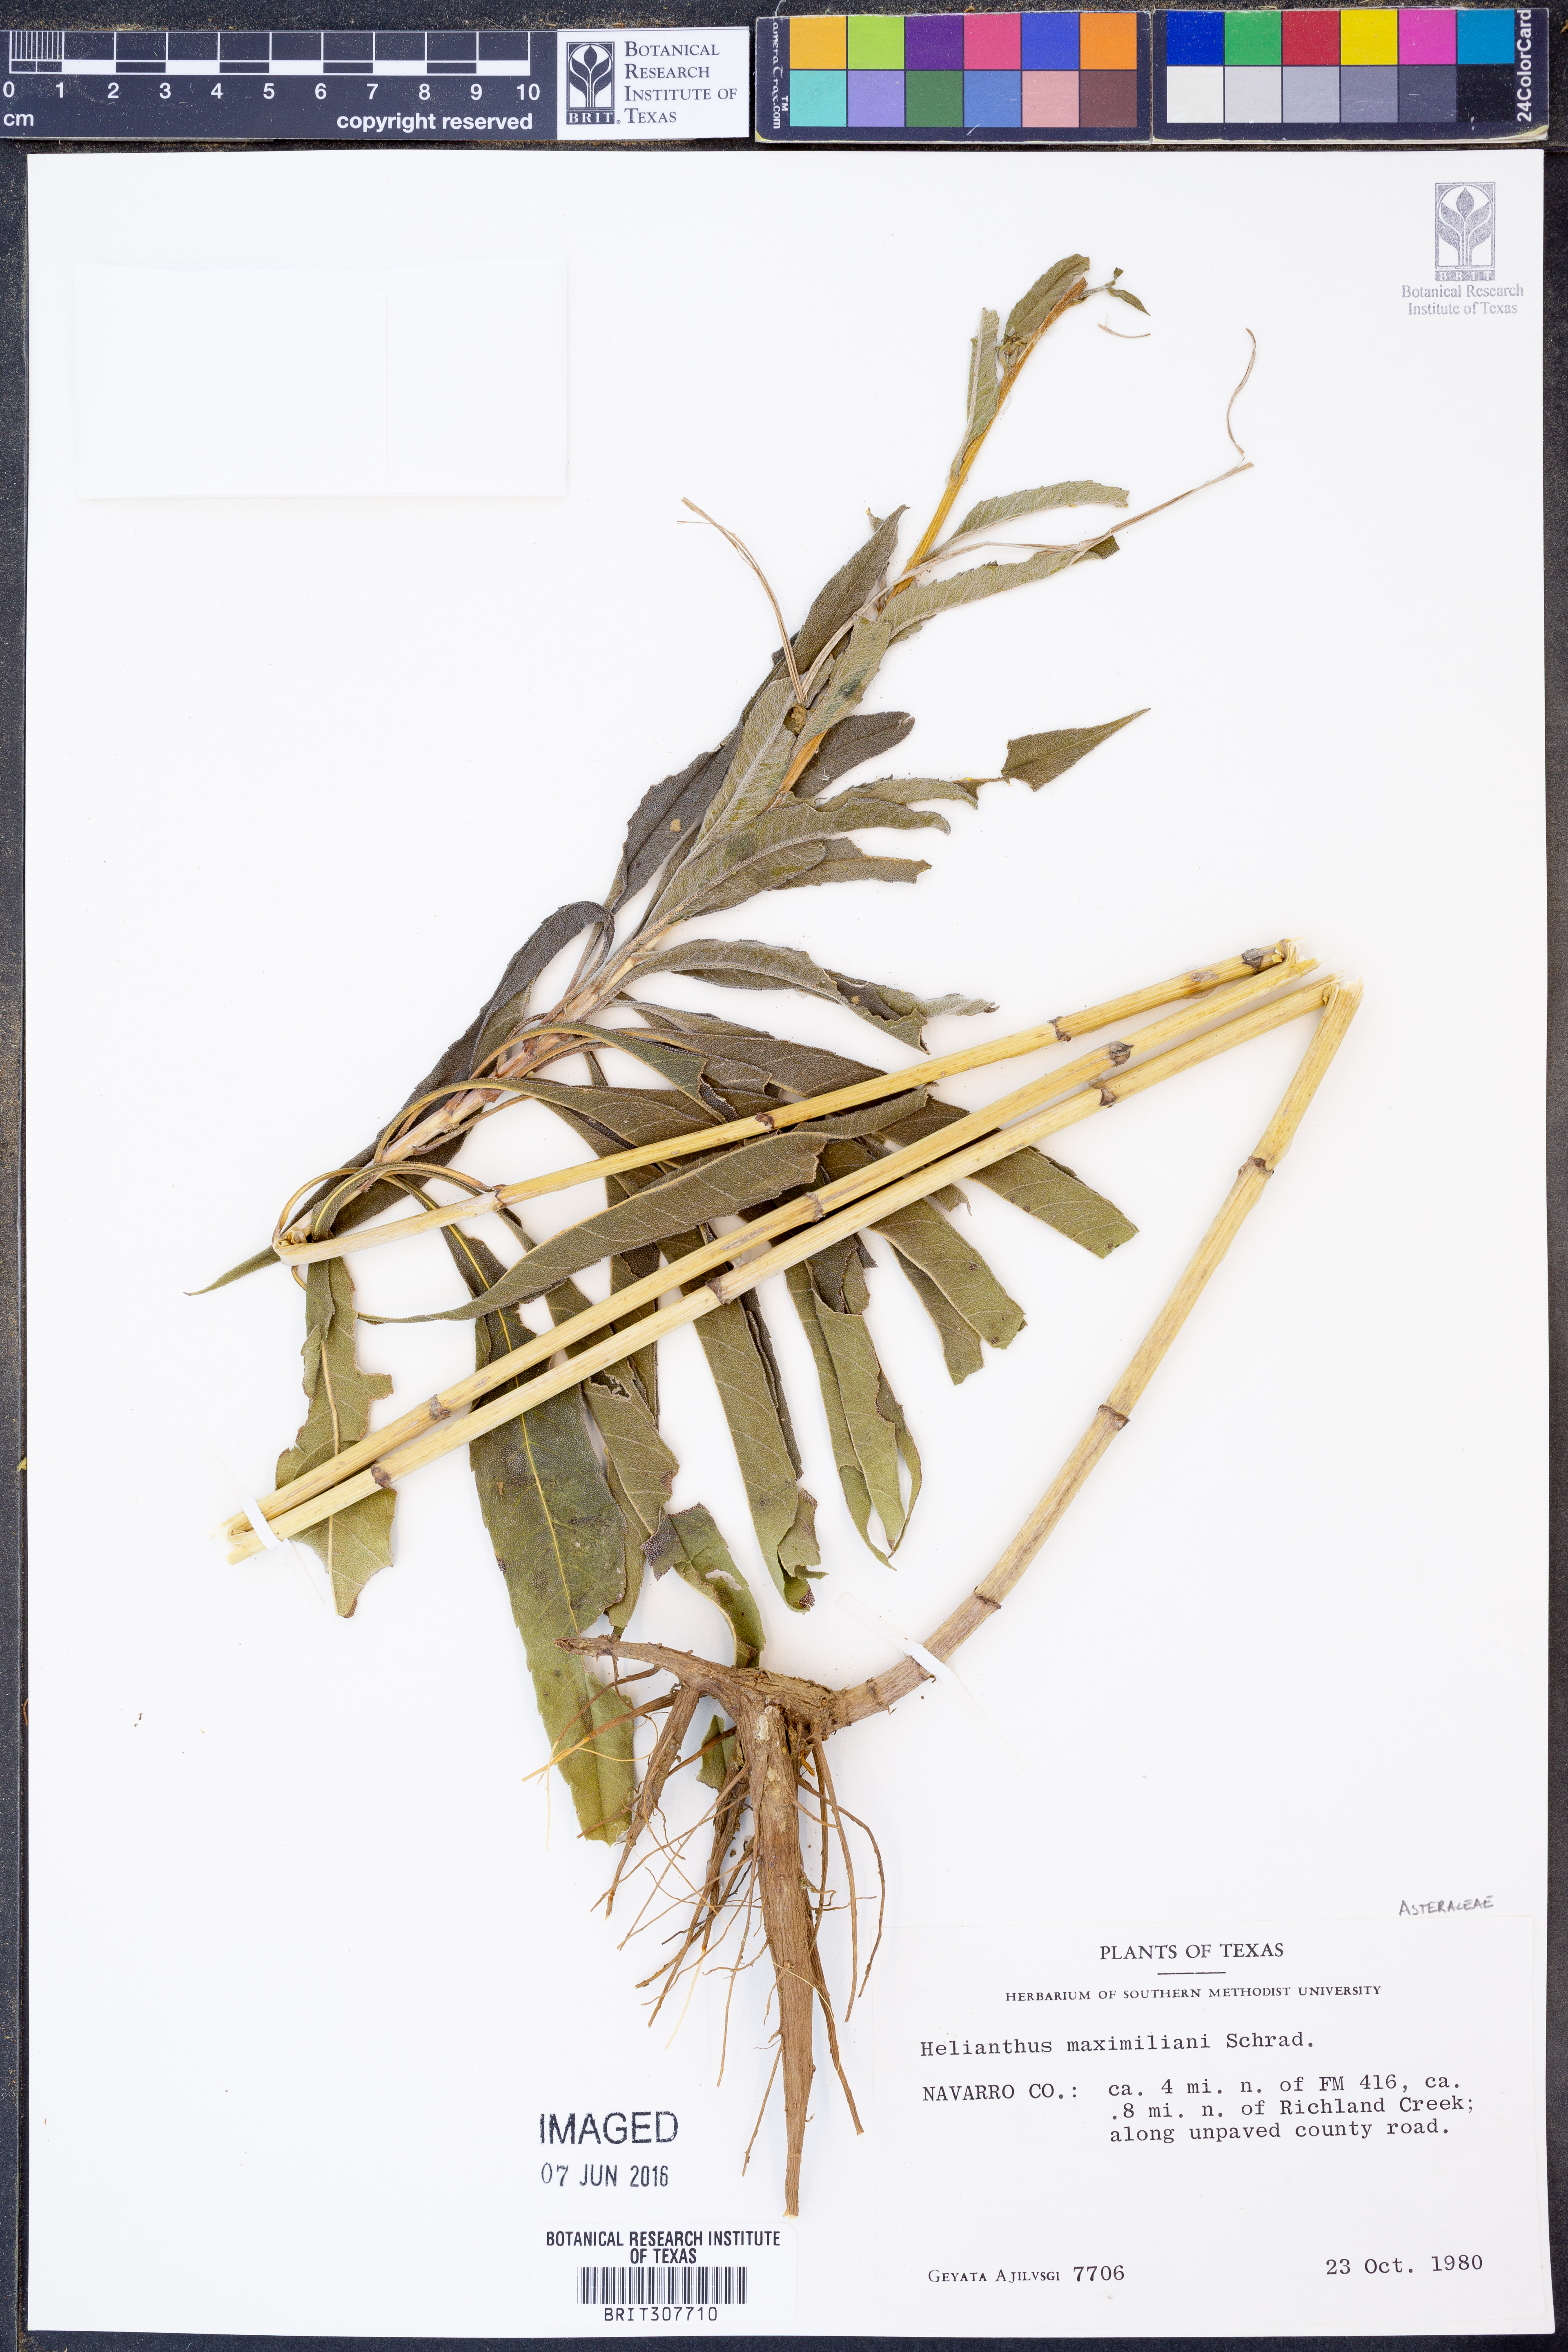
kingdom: Plantae
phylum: Tracheophyta
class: Magnoliopsida
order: Asterales
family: Asteraceae
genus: Helianthus
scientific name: Helianthus maximiliani
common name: Maximilian's sunflower
